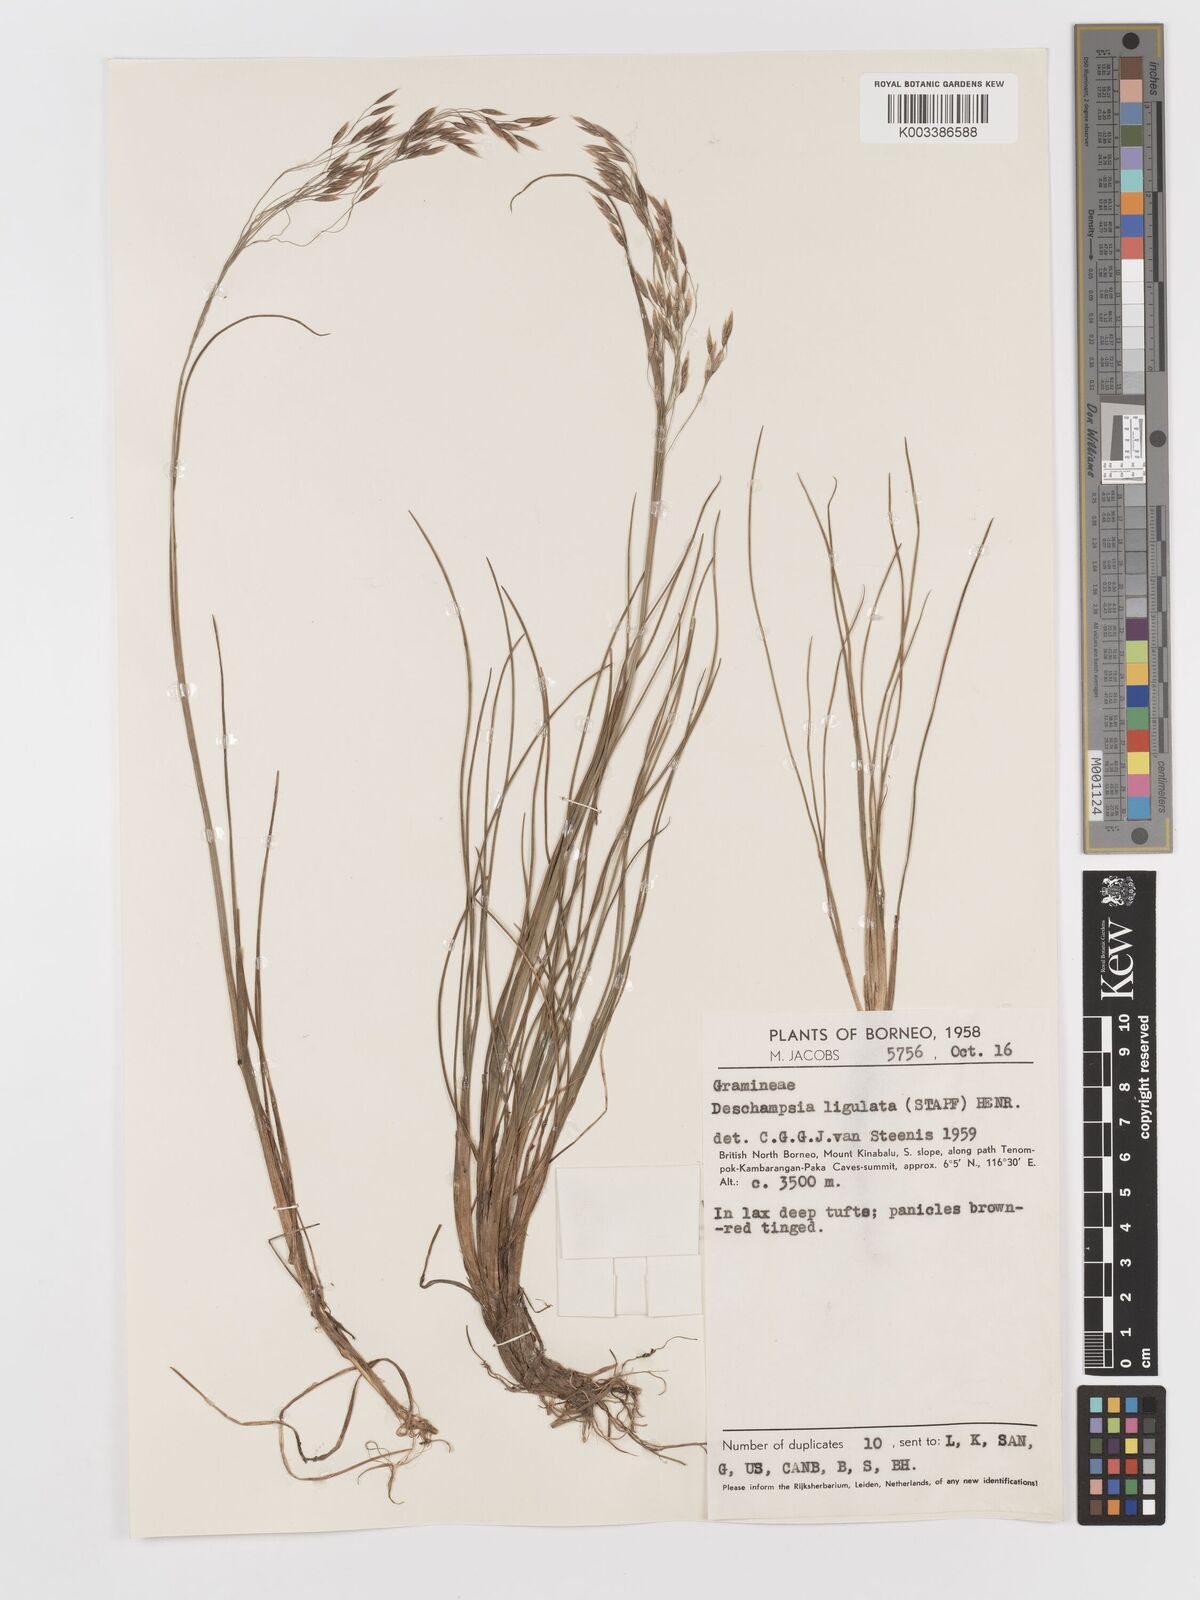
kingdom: Plantae
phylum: Tracheophyta
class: Liliopsida
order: Poales
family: Poaceae
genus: Avenella
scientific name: Avenella flexuosa
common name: Wavy hairgrass
